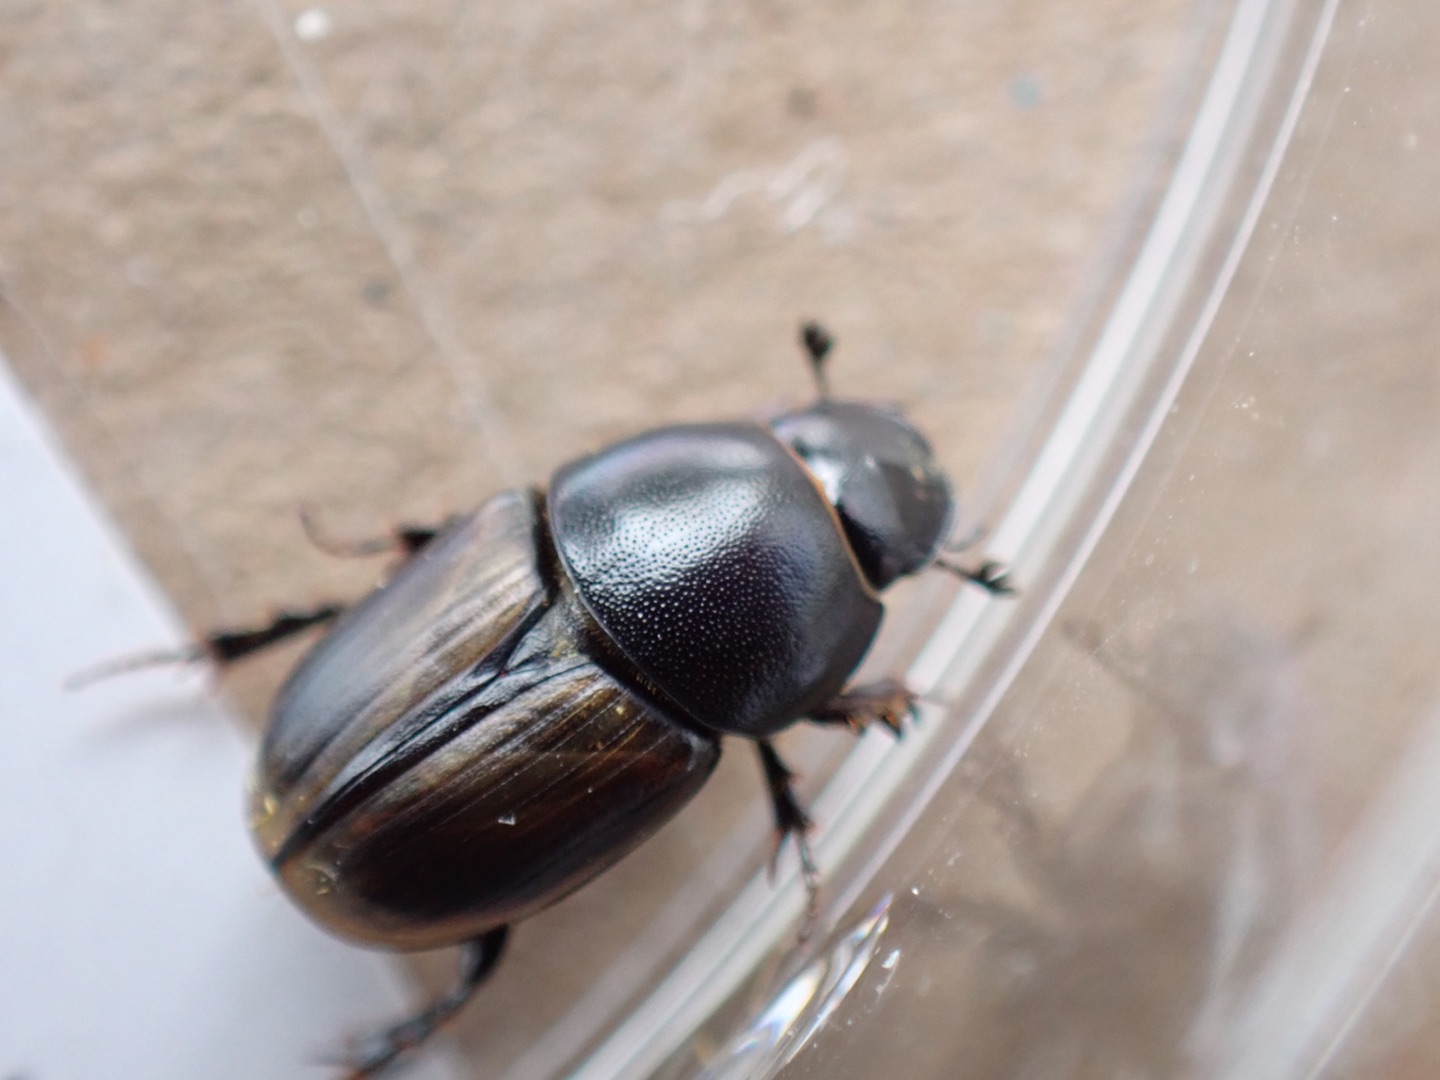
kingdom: Animalia
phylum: Arthropoda
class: Insecta
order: Coleoptera
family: Scarabaeidae
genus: Colobopterus
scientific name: Colobopterus erraticus
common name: Vagabonderende møgbille
